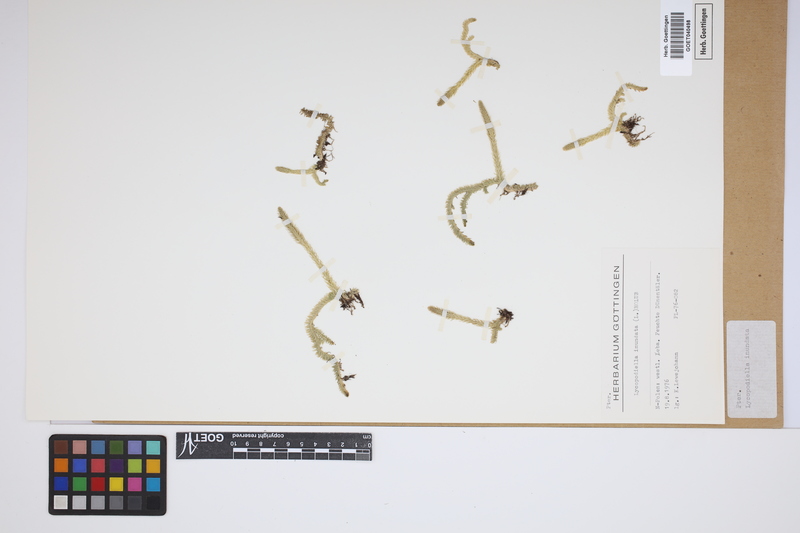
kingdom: Plantae
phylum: Tracheophyta
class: Lycopodiopsida
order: Lycopodiales
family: Lycopodiaceae
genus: Lycopodiella
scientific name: Lycopodiella inundata
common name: Marsh clubmoss
